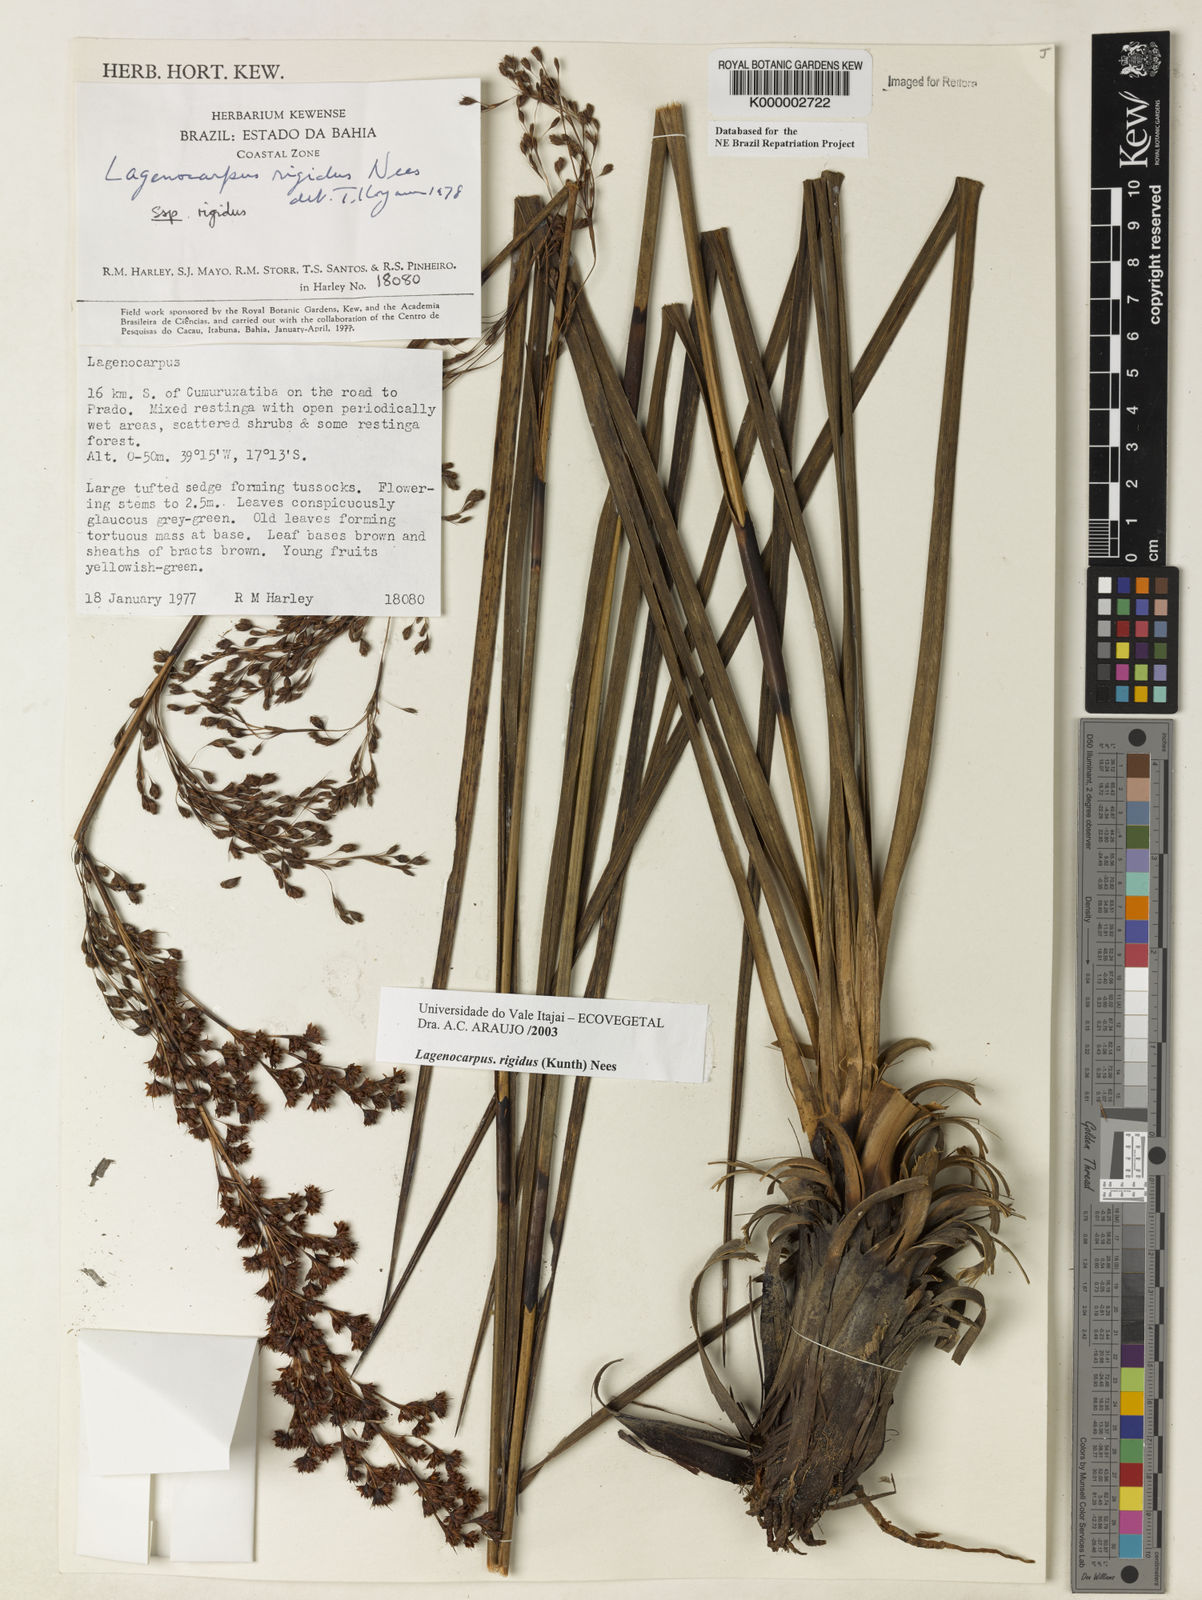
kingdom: Plantae
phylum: Tracheophyta
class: Liliopsida
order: Poales
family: Cyperaceae
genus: Lagenocarpus
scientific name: Lagenocarpus rigidus
